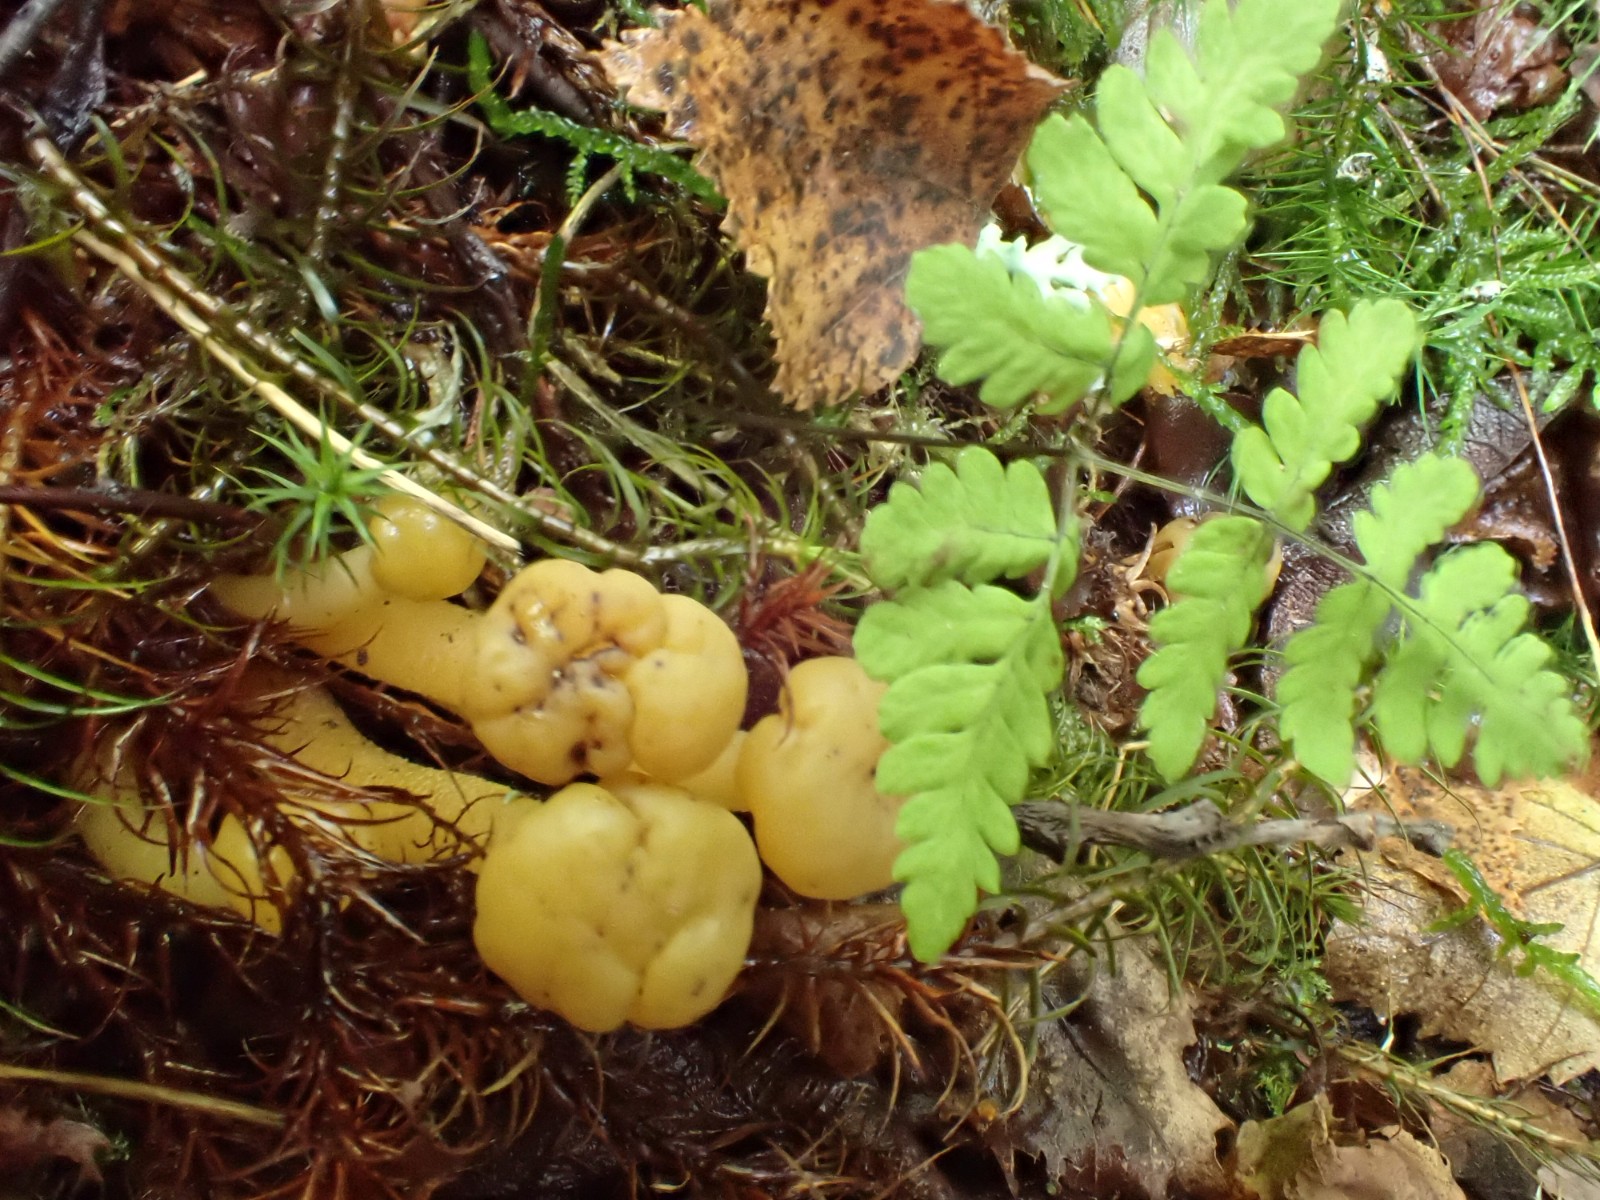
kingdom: Fungi
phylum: Ascomycota
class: Leotiomycetes
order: Leotiales
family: Leotiaceae
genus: Leotia
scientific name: Leotia lubrica
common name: ravsvamp
